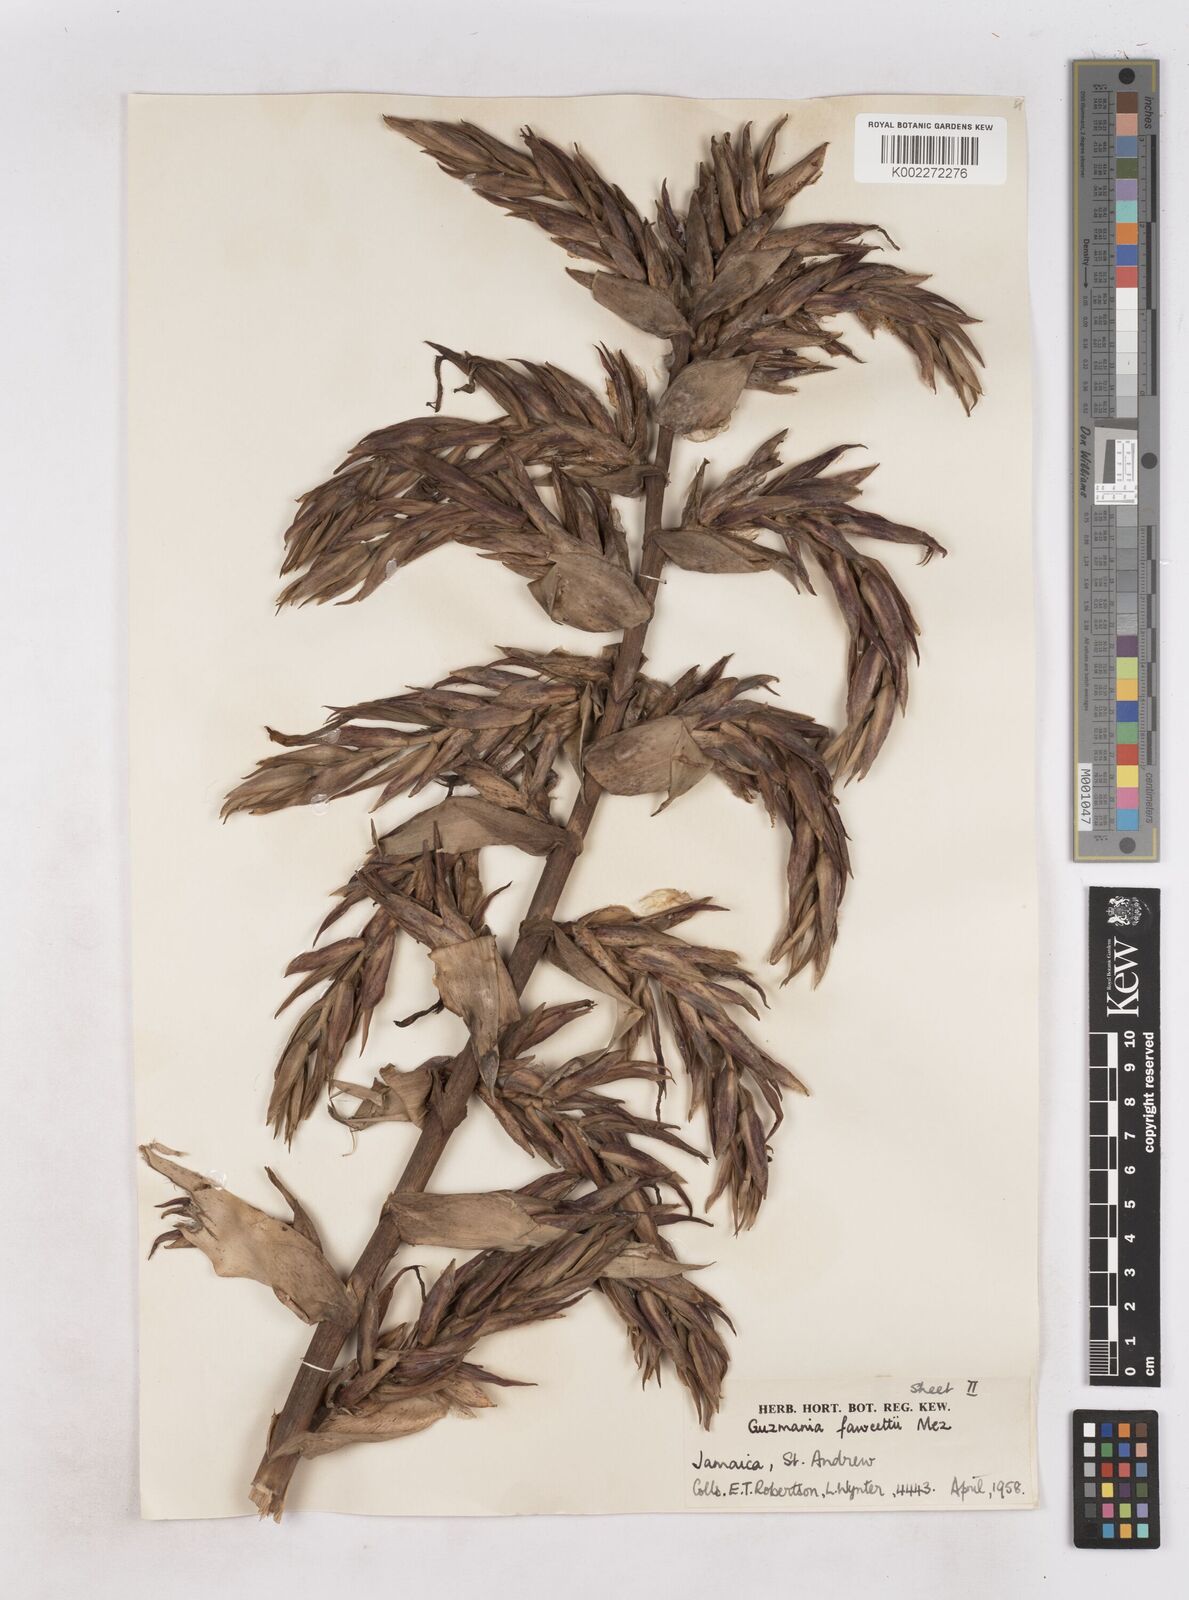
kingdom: Plantae
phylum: Tracheophyta
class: Liliopsida
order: Poales
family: Bromeliaceae
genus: Guzmania
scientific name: Guzmania fawcettii
